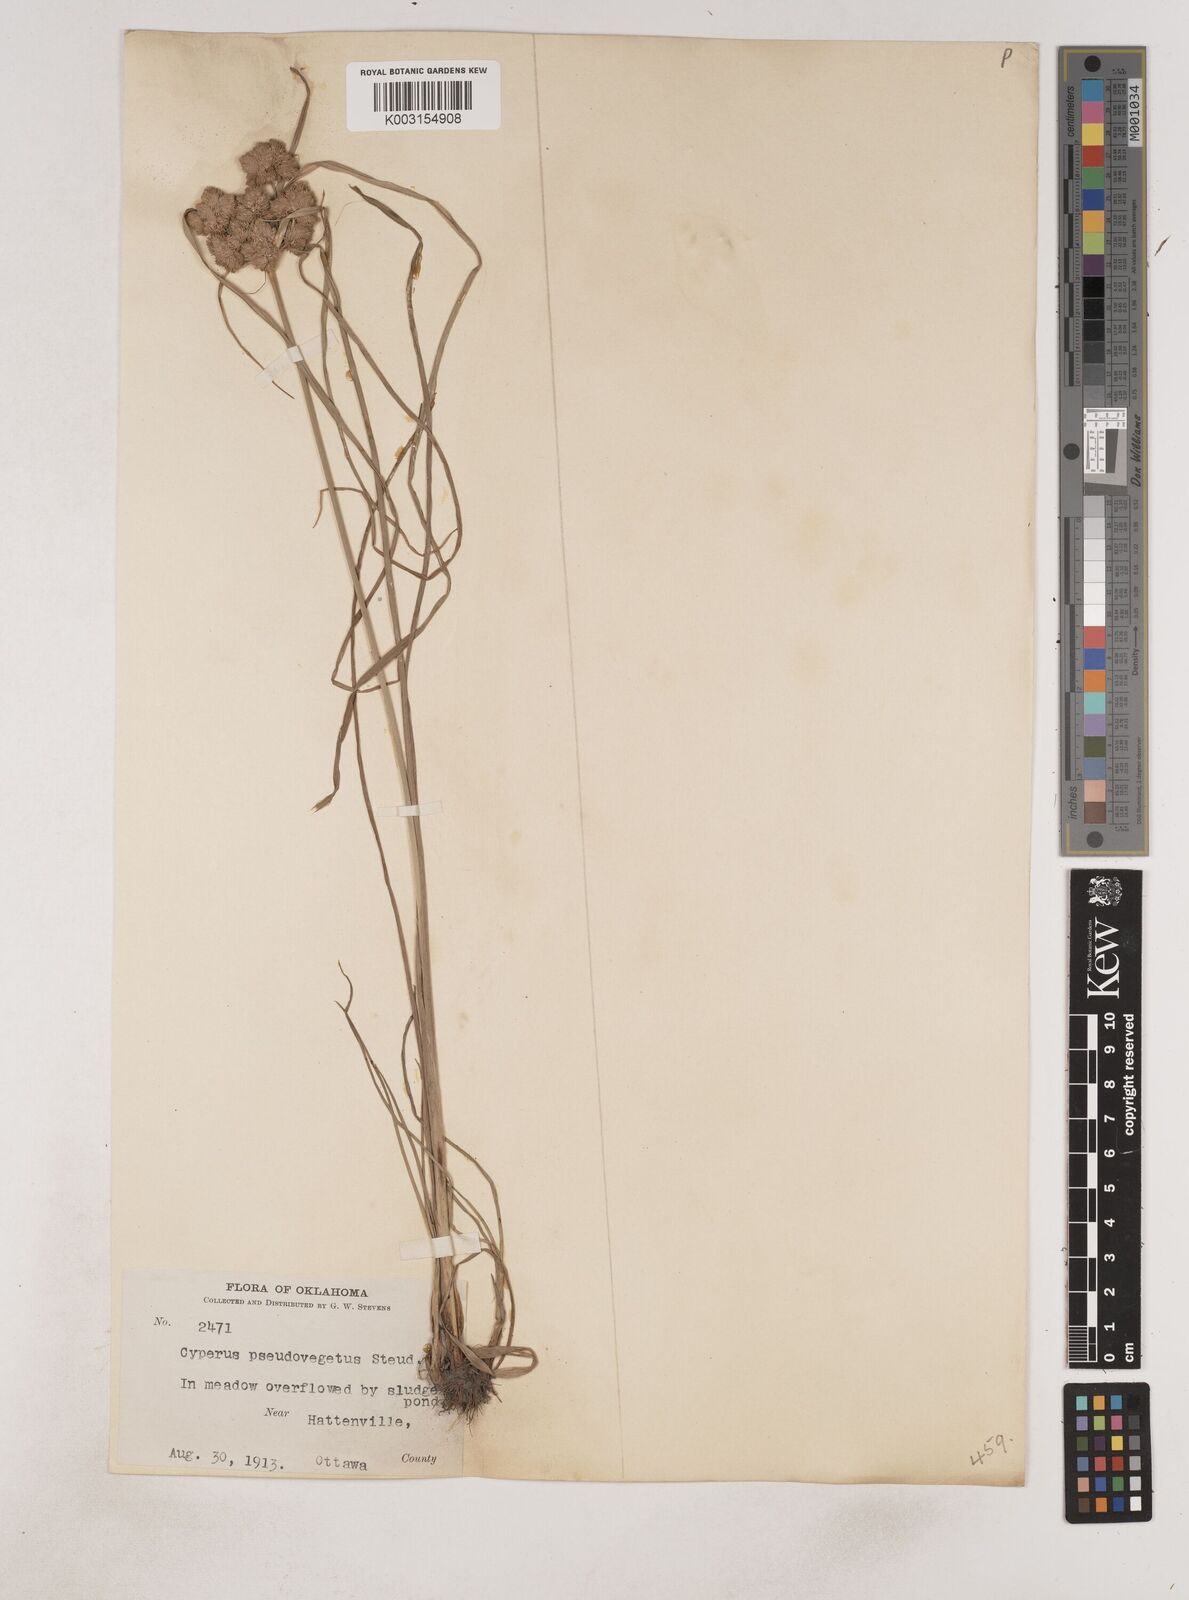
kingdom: Plantae
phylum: Tracheophyta
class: Liliopsida
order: Poales
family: Cyperaceae
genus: Cyperus
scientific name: Cyperus pseudovegetus
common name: Marsh flat sedge
